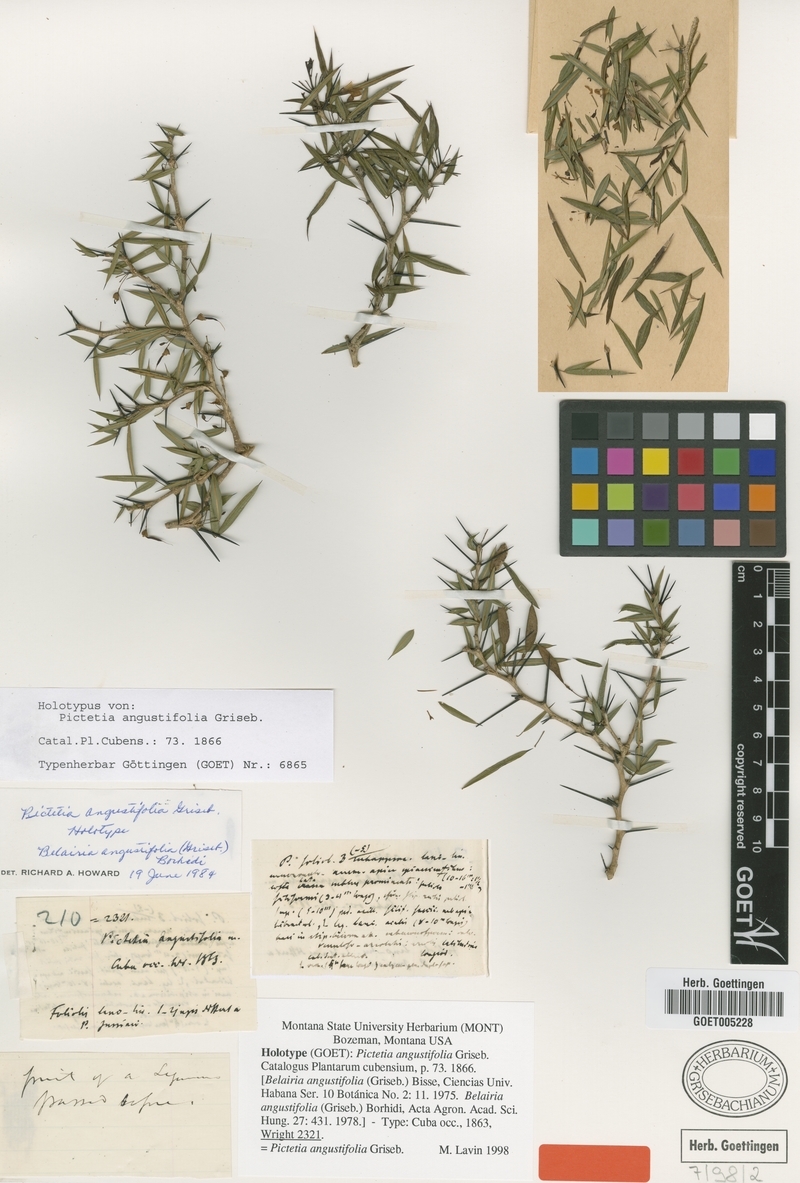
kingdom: Plantae
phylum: Tracheophyta
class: Magnoliopsida
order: Fabales
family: Fabaceae
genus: Pictetia
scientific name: Pictetia angustifolia
